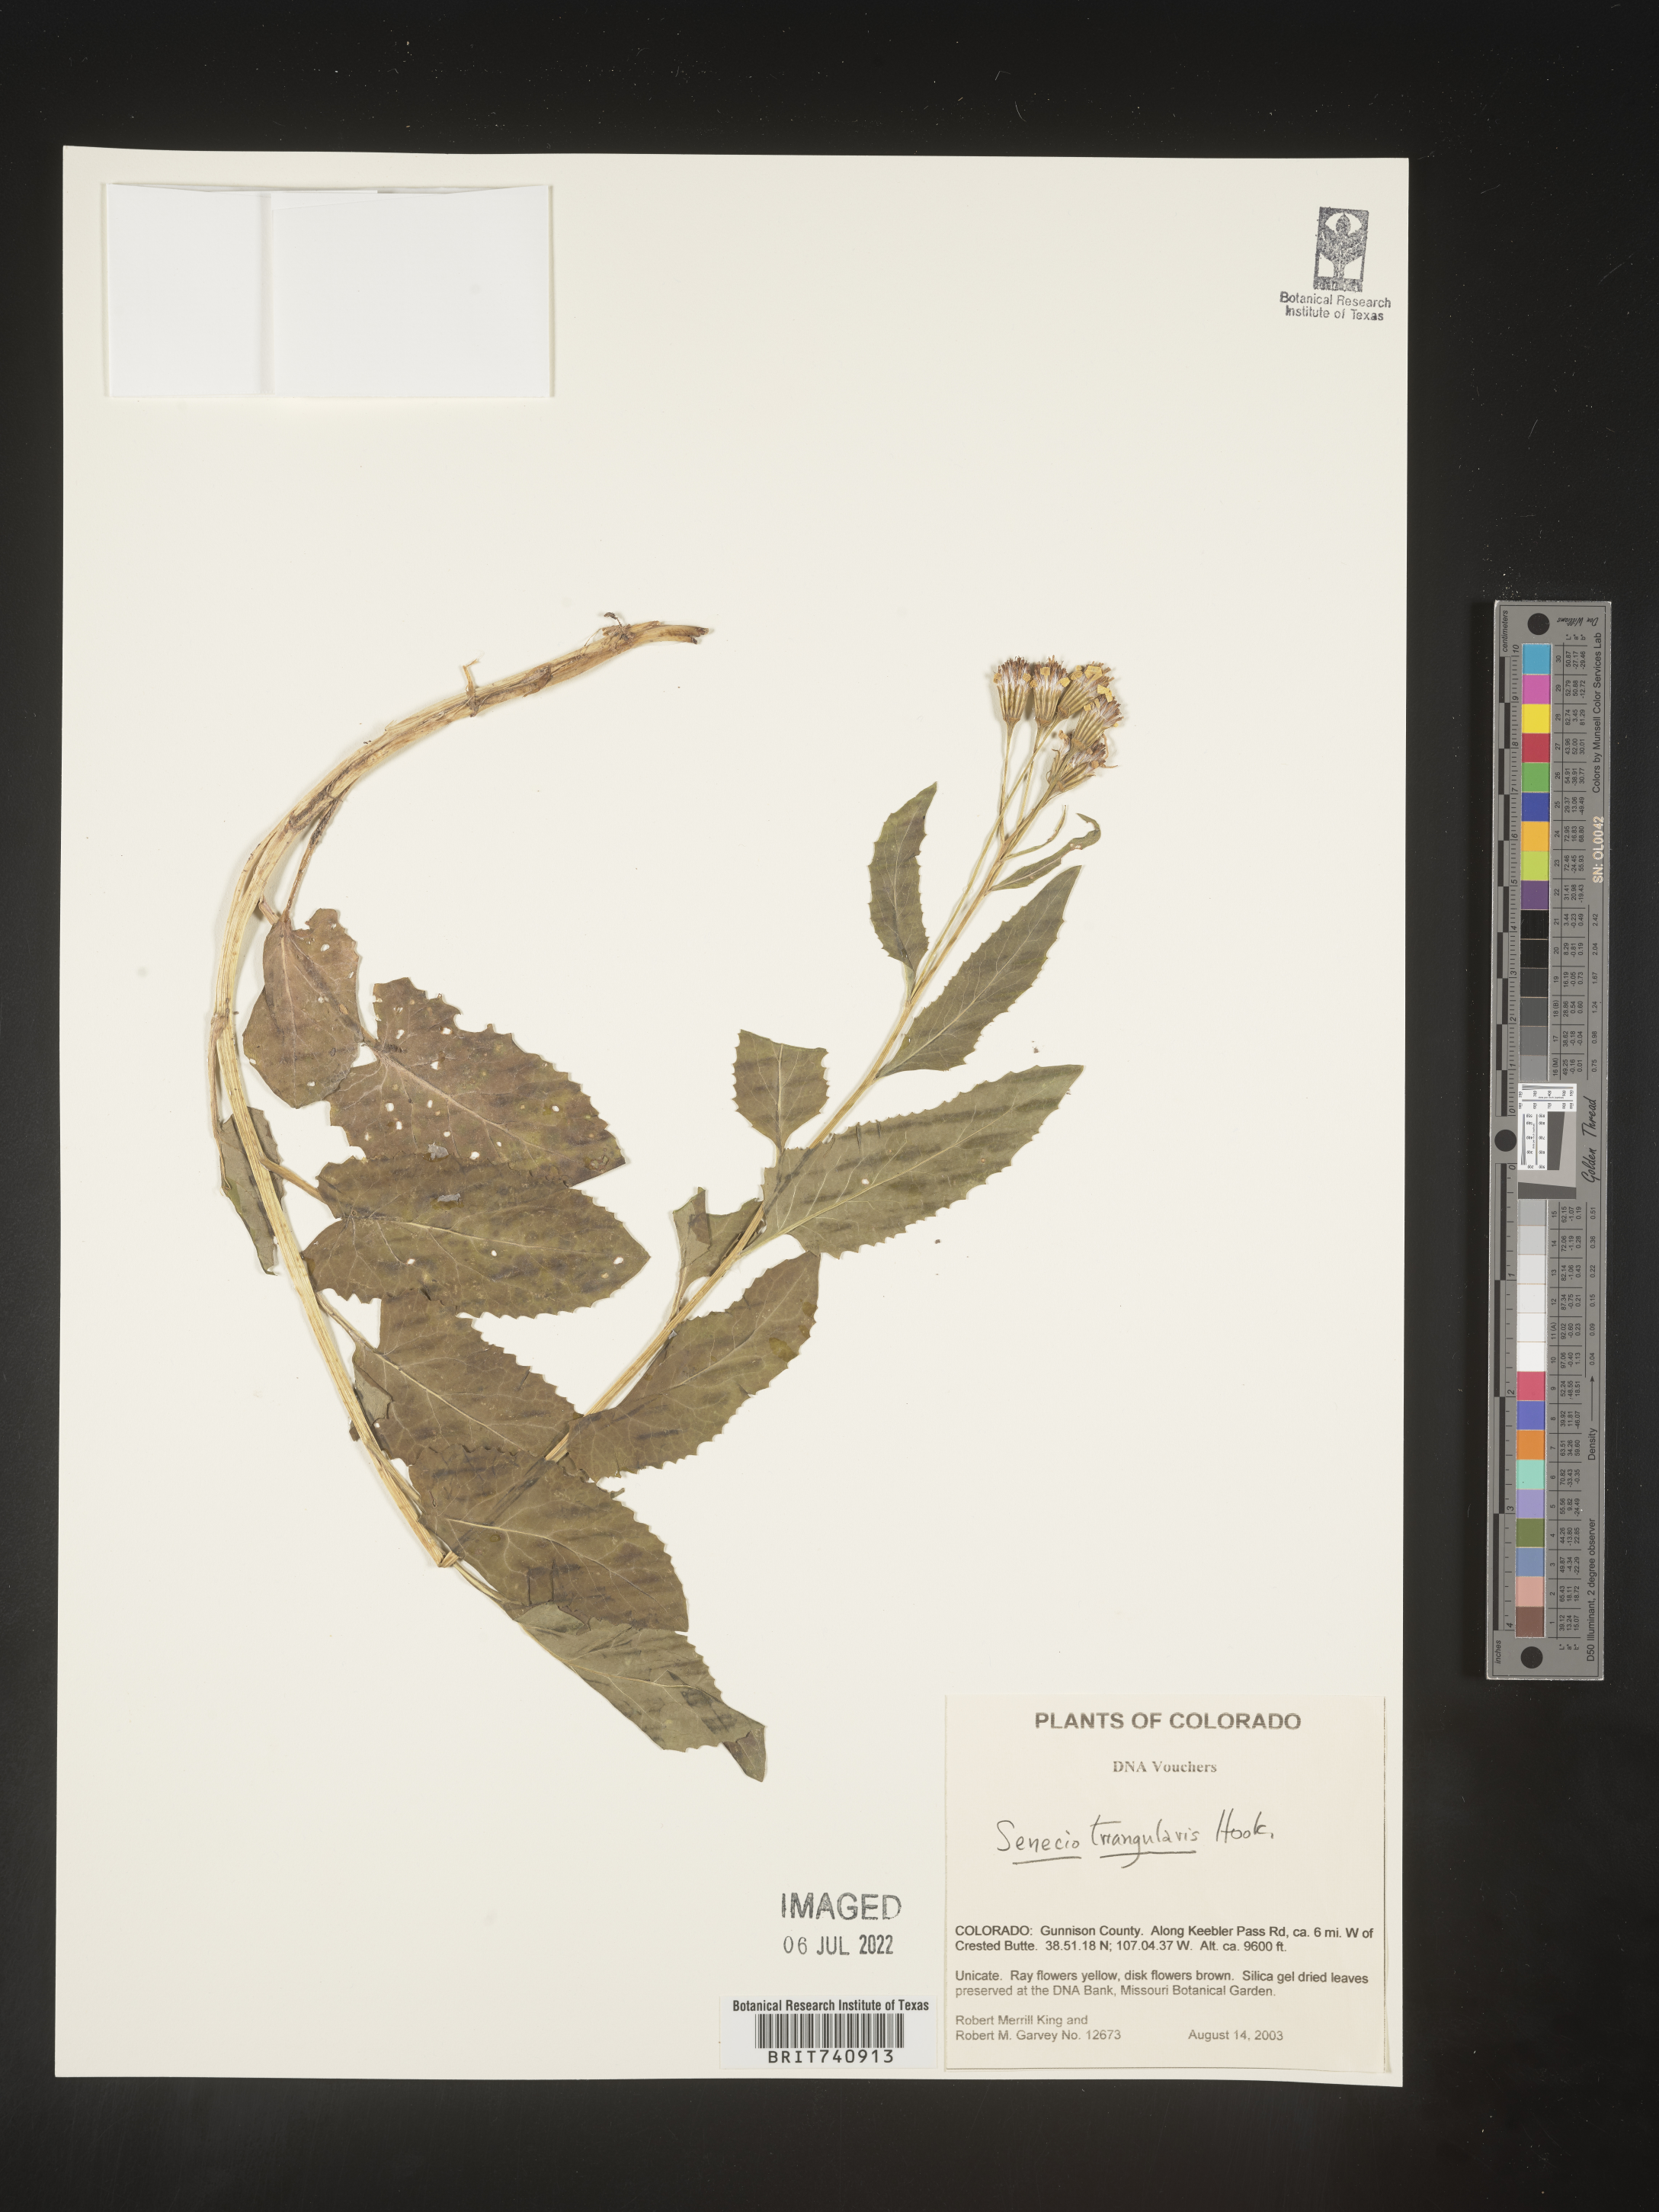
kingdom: Plantae
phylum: Tracheophyta
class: Magnoliopsida
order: Asterales
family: Asteraceae
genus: Senecio
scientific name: Senecio triangularis
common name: Arrowleaf butterweed
